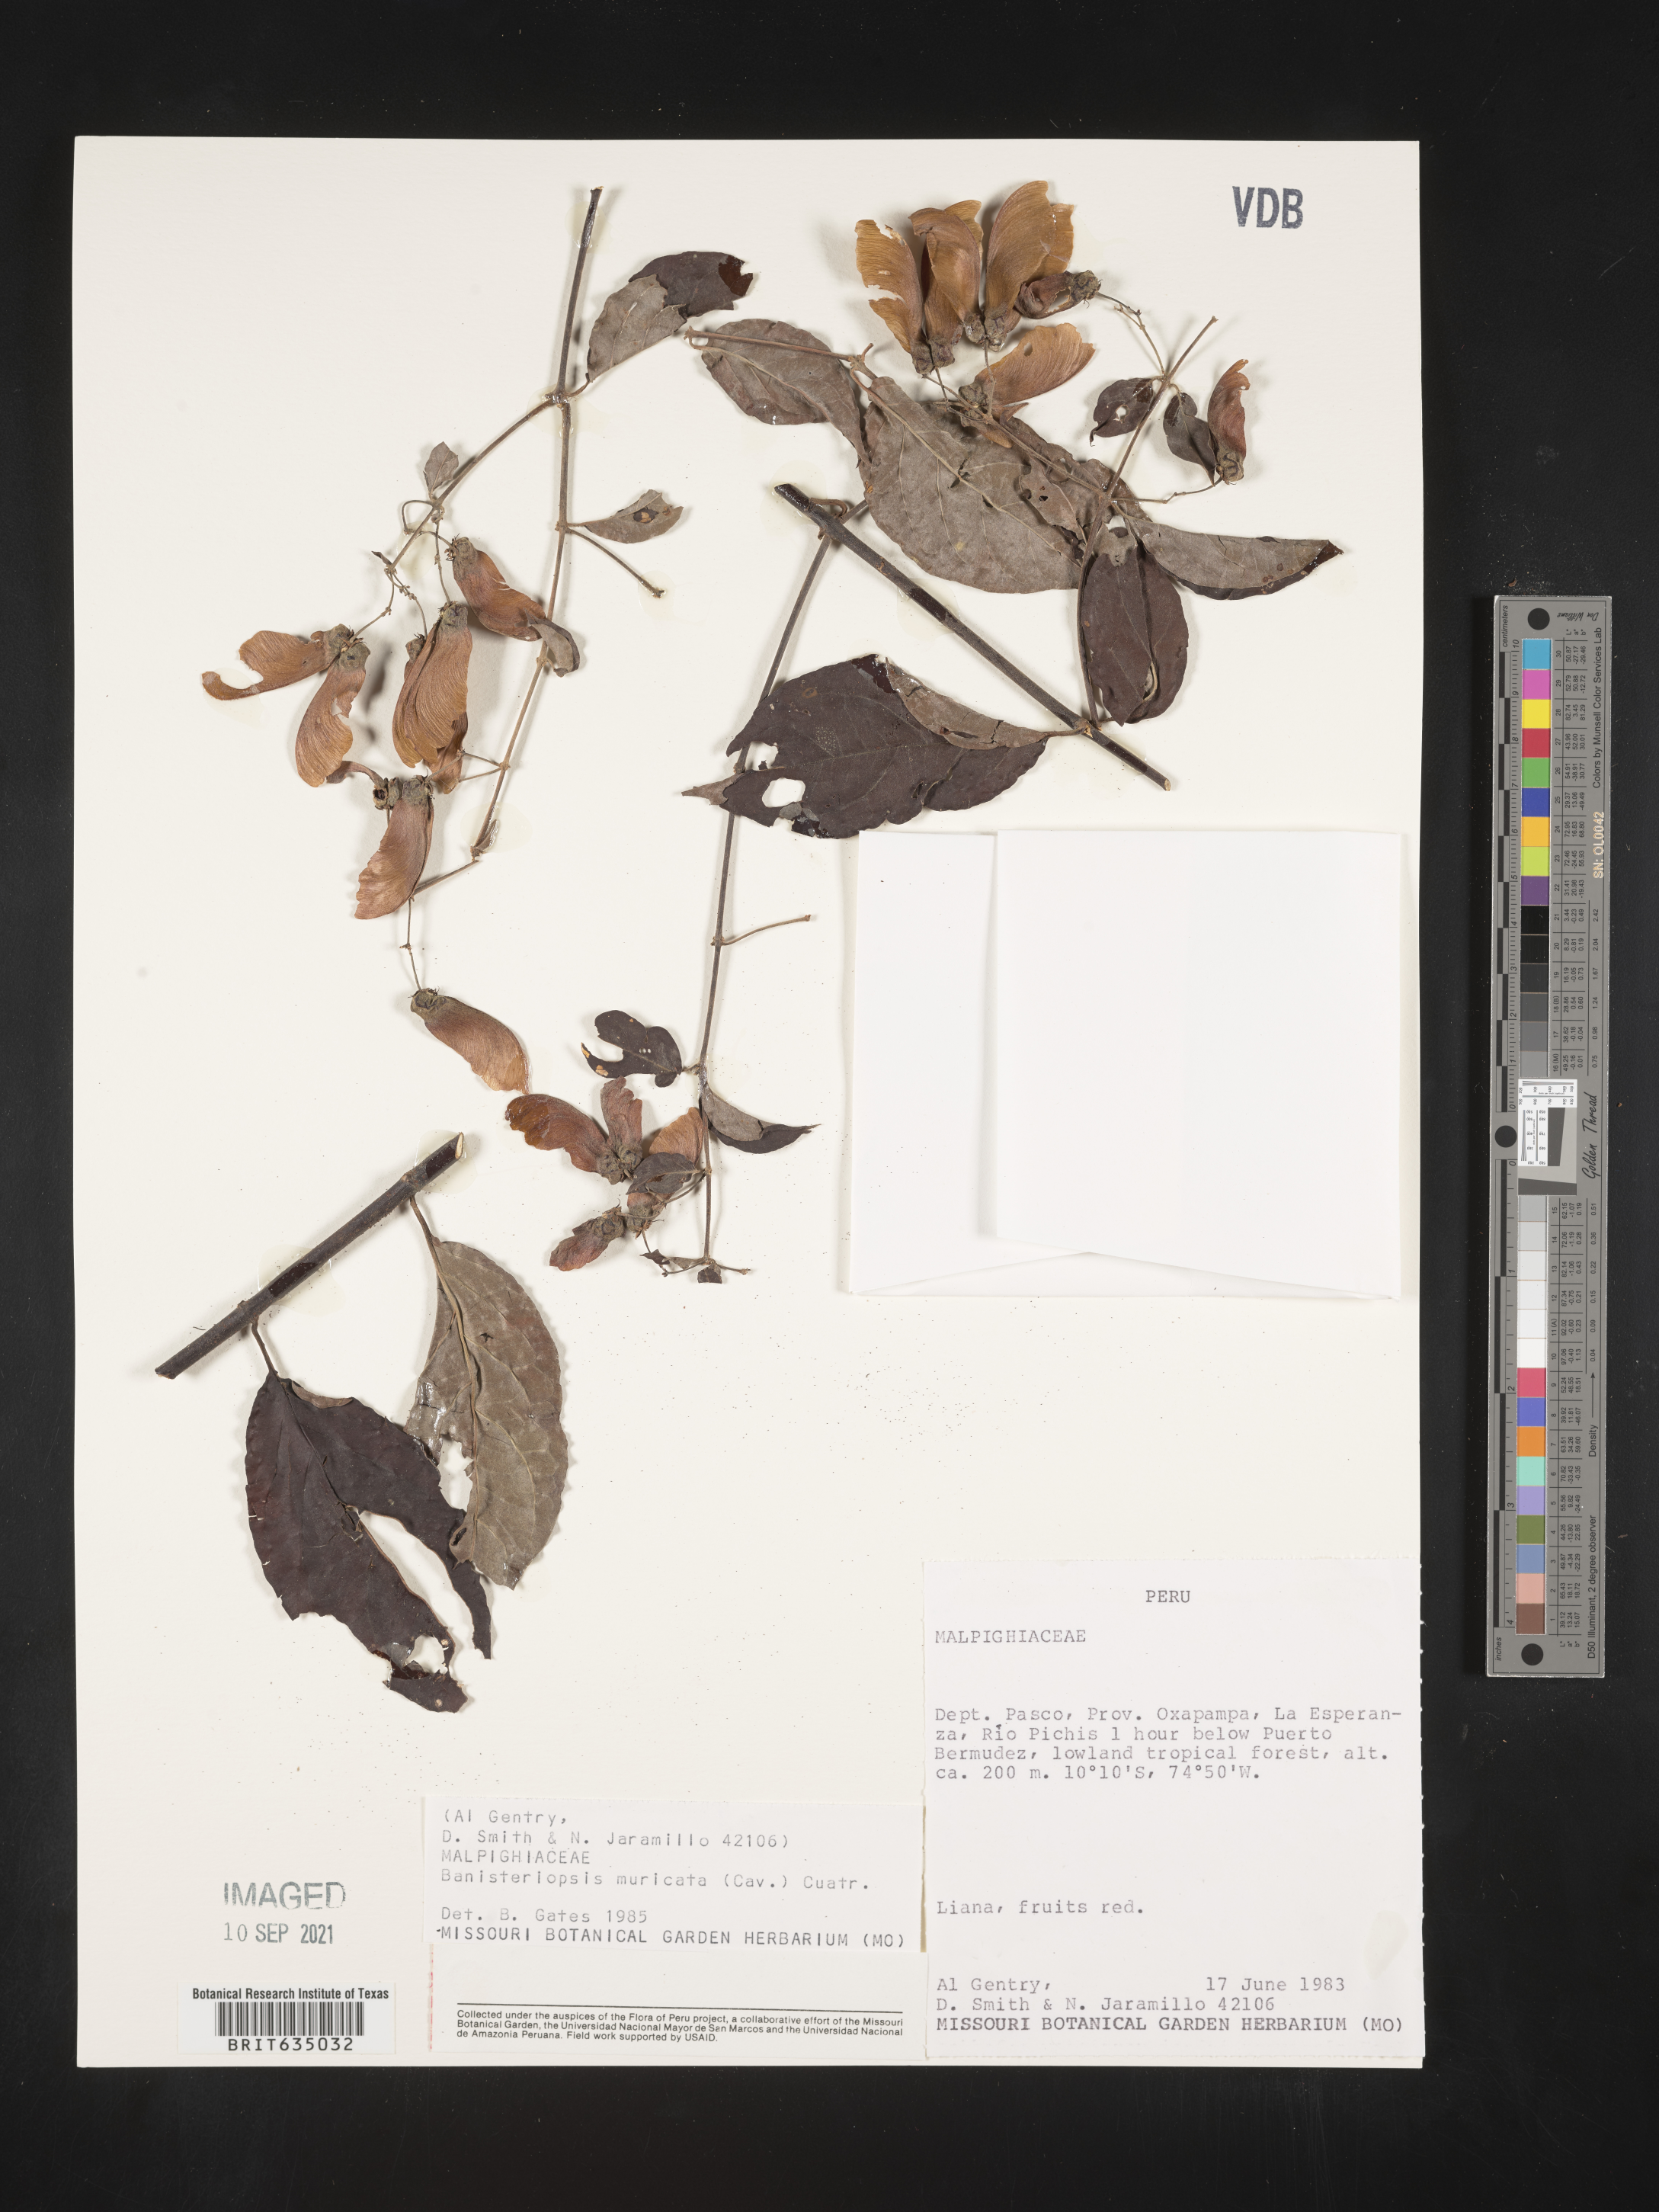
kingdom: Plantae
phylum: Tracheophyta
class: Magnoliopsida
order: Malpighiales
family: Malpighiaceae
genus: Banisteriopsis
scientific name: Banisteriopsis
